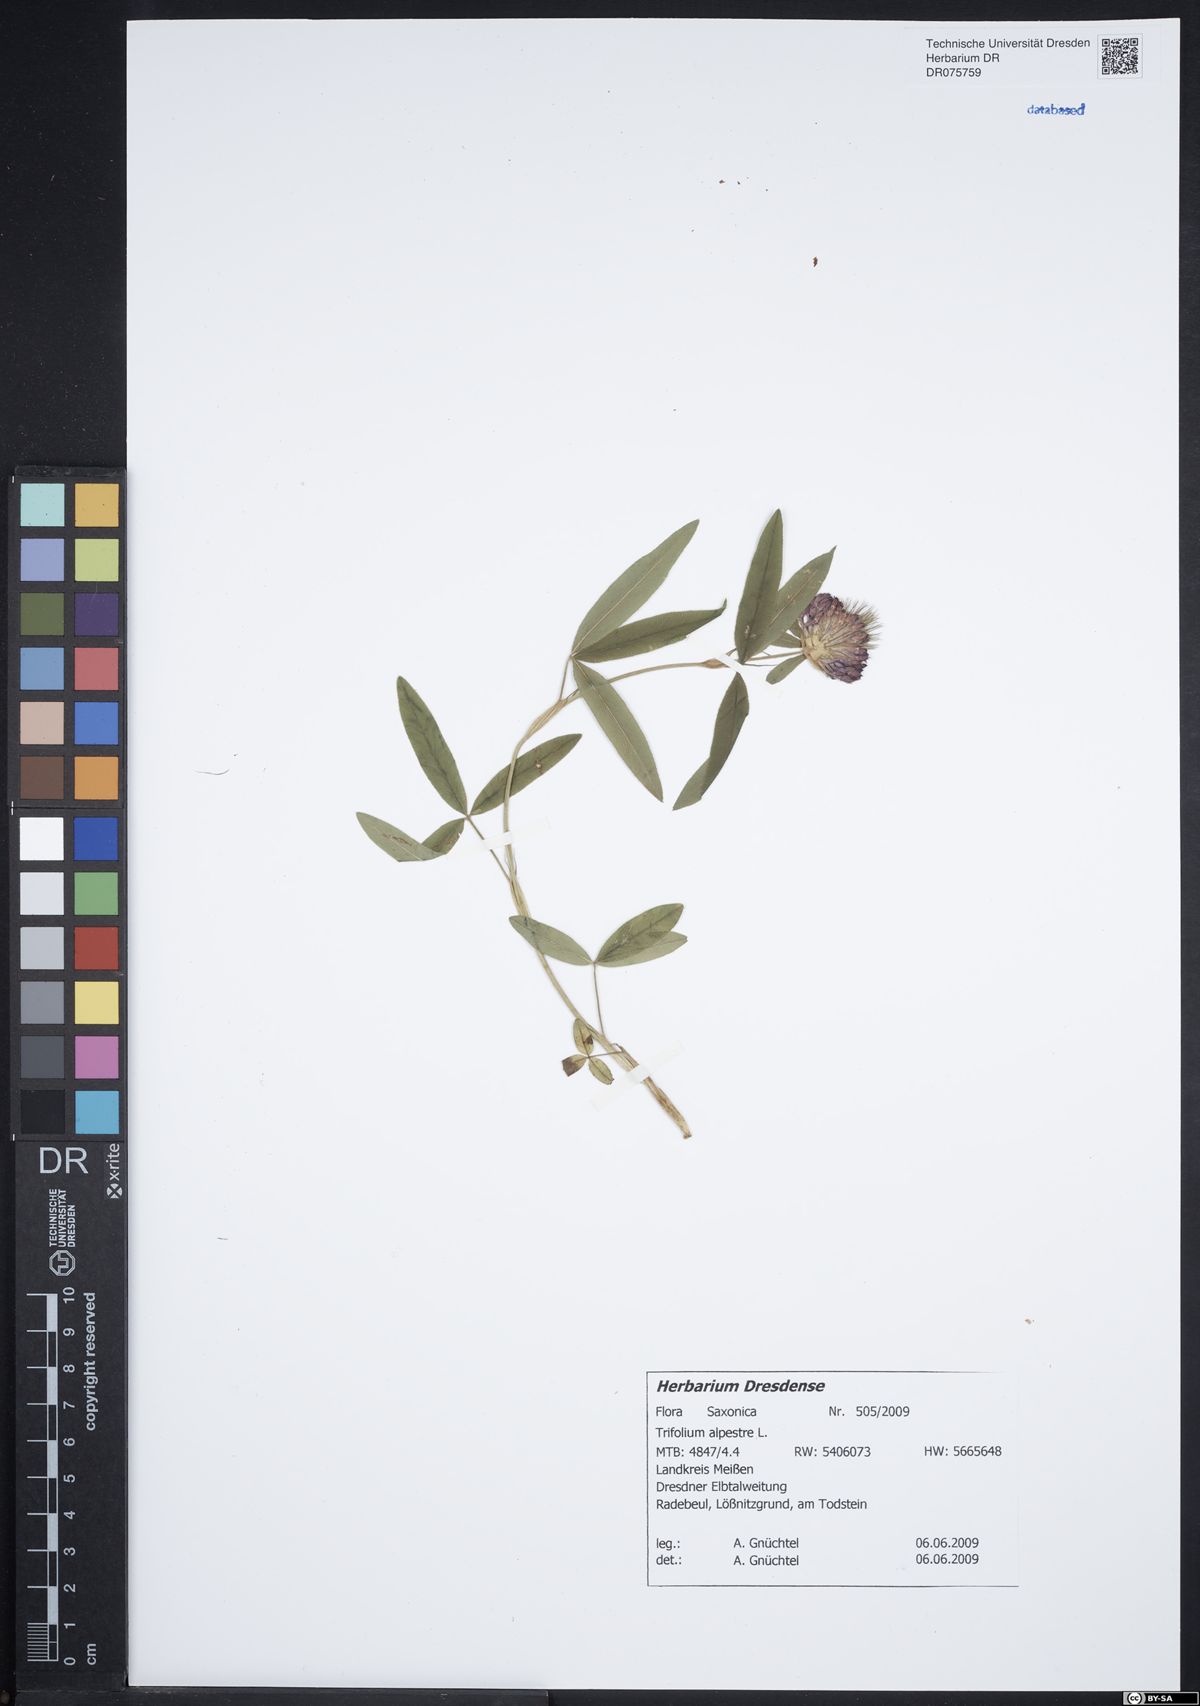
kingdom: Plantae
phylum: Tracheophyta
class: Magnoliopsida
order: Fabales
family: Fabaceae
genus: Trifolium
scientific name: Trifolium alpestre
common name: Owl-head clover
